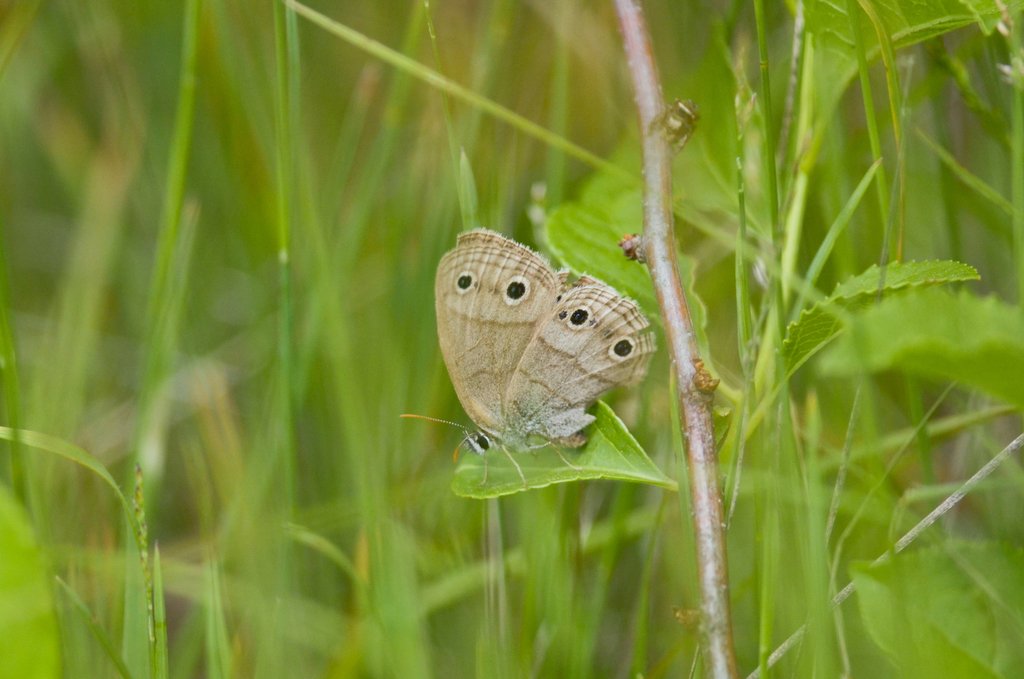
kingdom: Animalia
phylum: Arthropoda
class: Insecta
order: Lepidoptera
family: Nymphalidae
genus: Euptychia
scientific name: Euptychia cymela
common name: Little Wood Satyr
